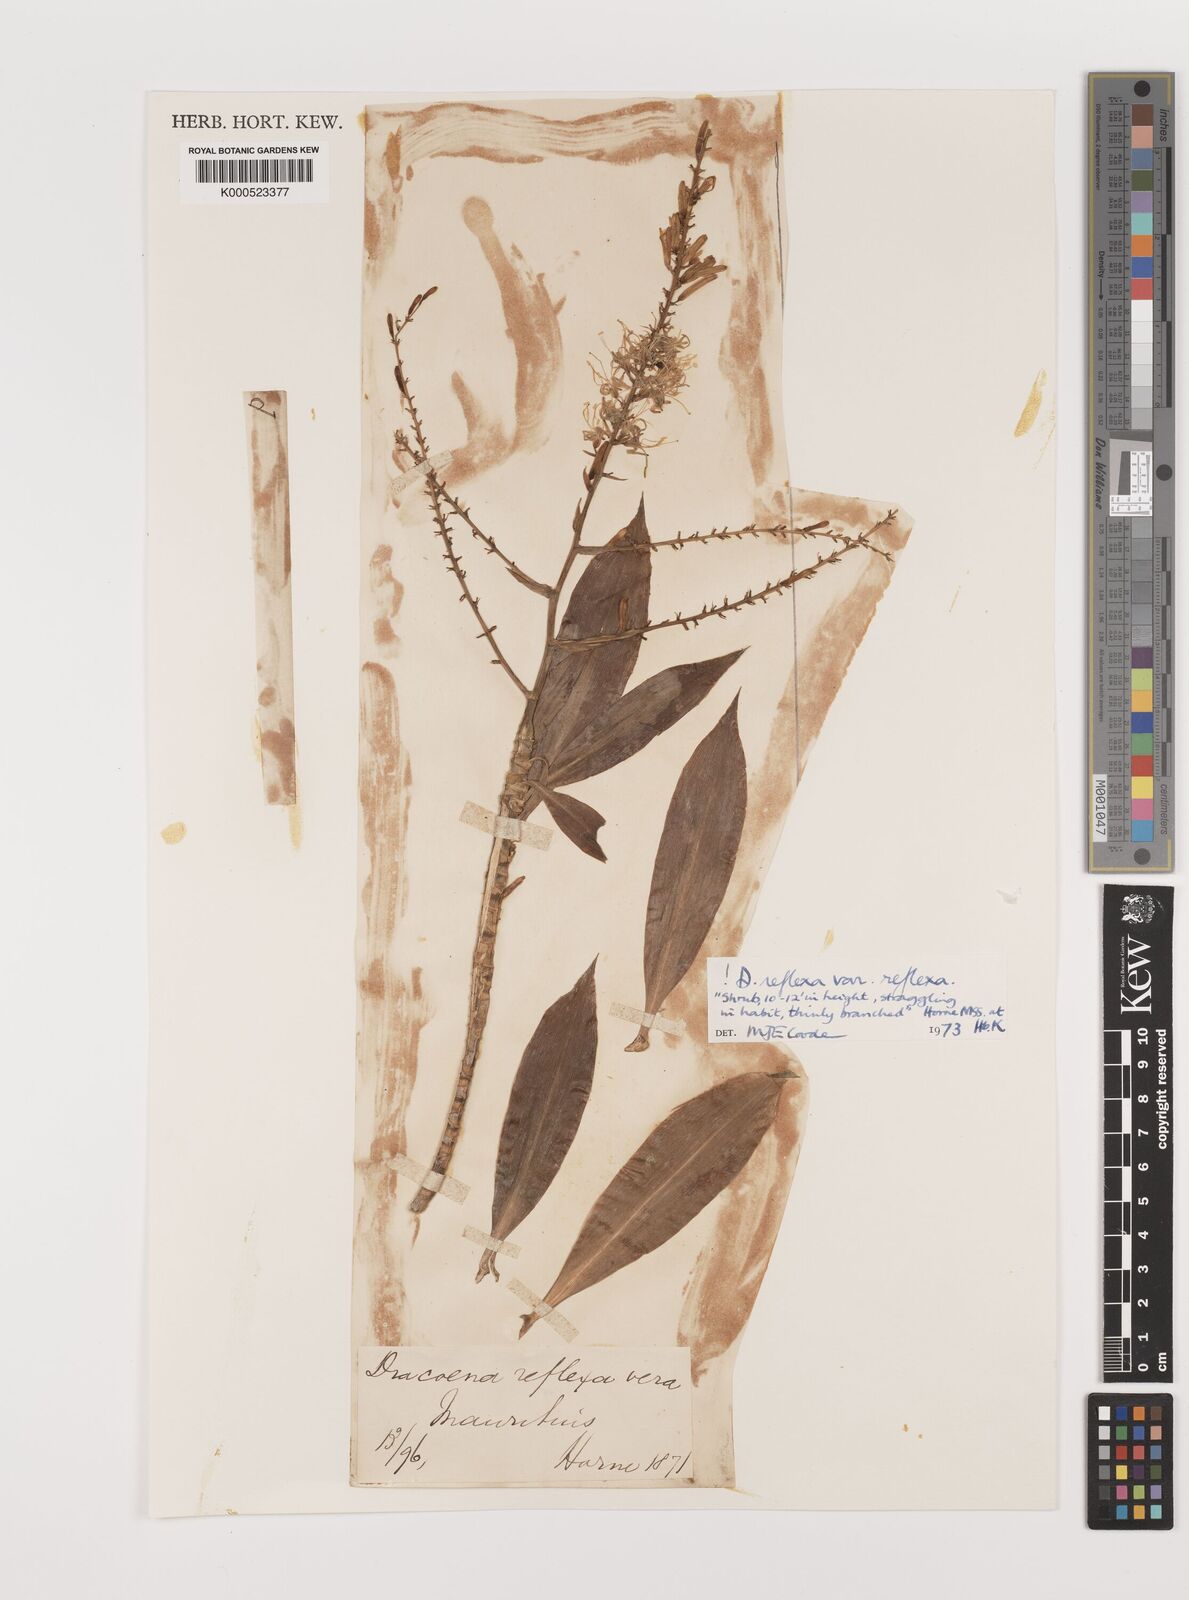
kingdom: Plantae
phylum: Tracheophyta
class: Liliopsida
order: Asparagales
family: Asparagaceae
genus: Dracaena
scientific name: Dracaena reflexa
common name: Song-of-india
